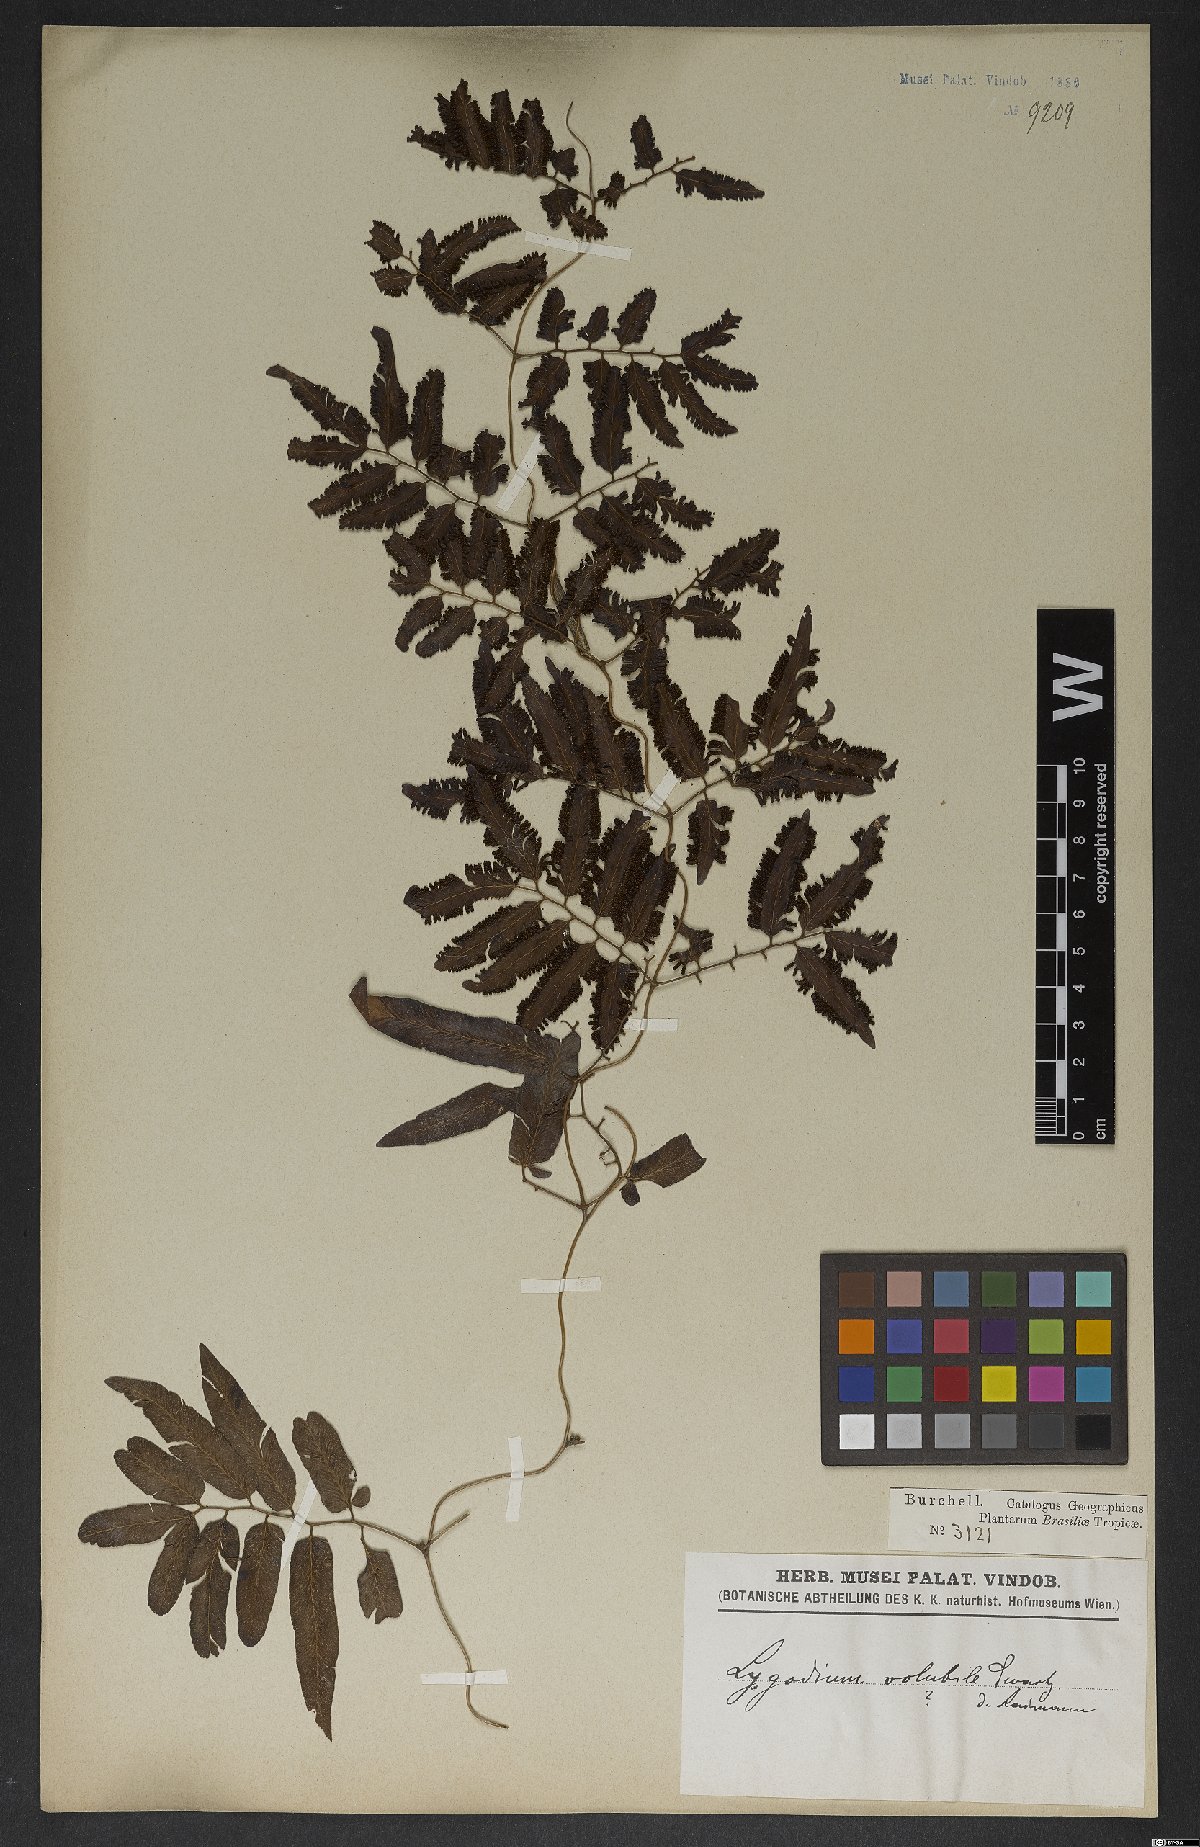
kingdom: Plantae
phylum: Tracheophyta
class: Polypodiopsida
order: Schizaeales
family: Lygodiaceae
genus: Lygodium
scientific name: Lygodium volubile
